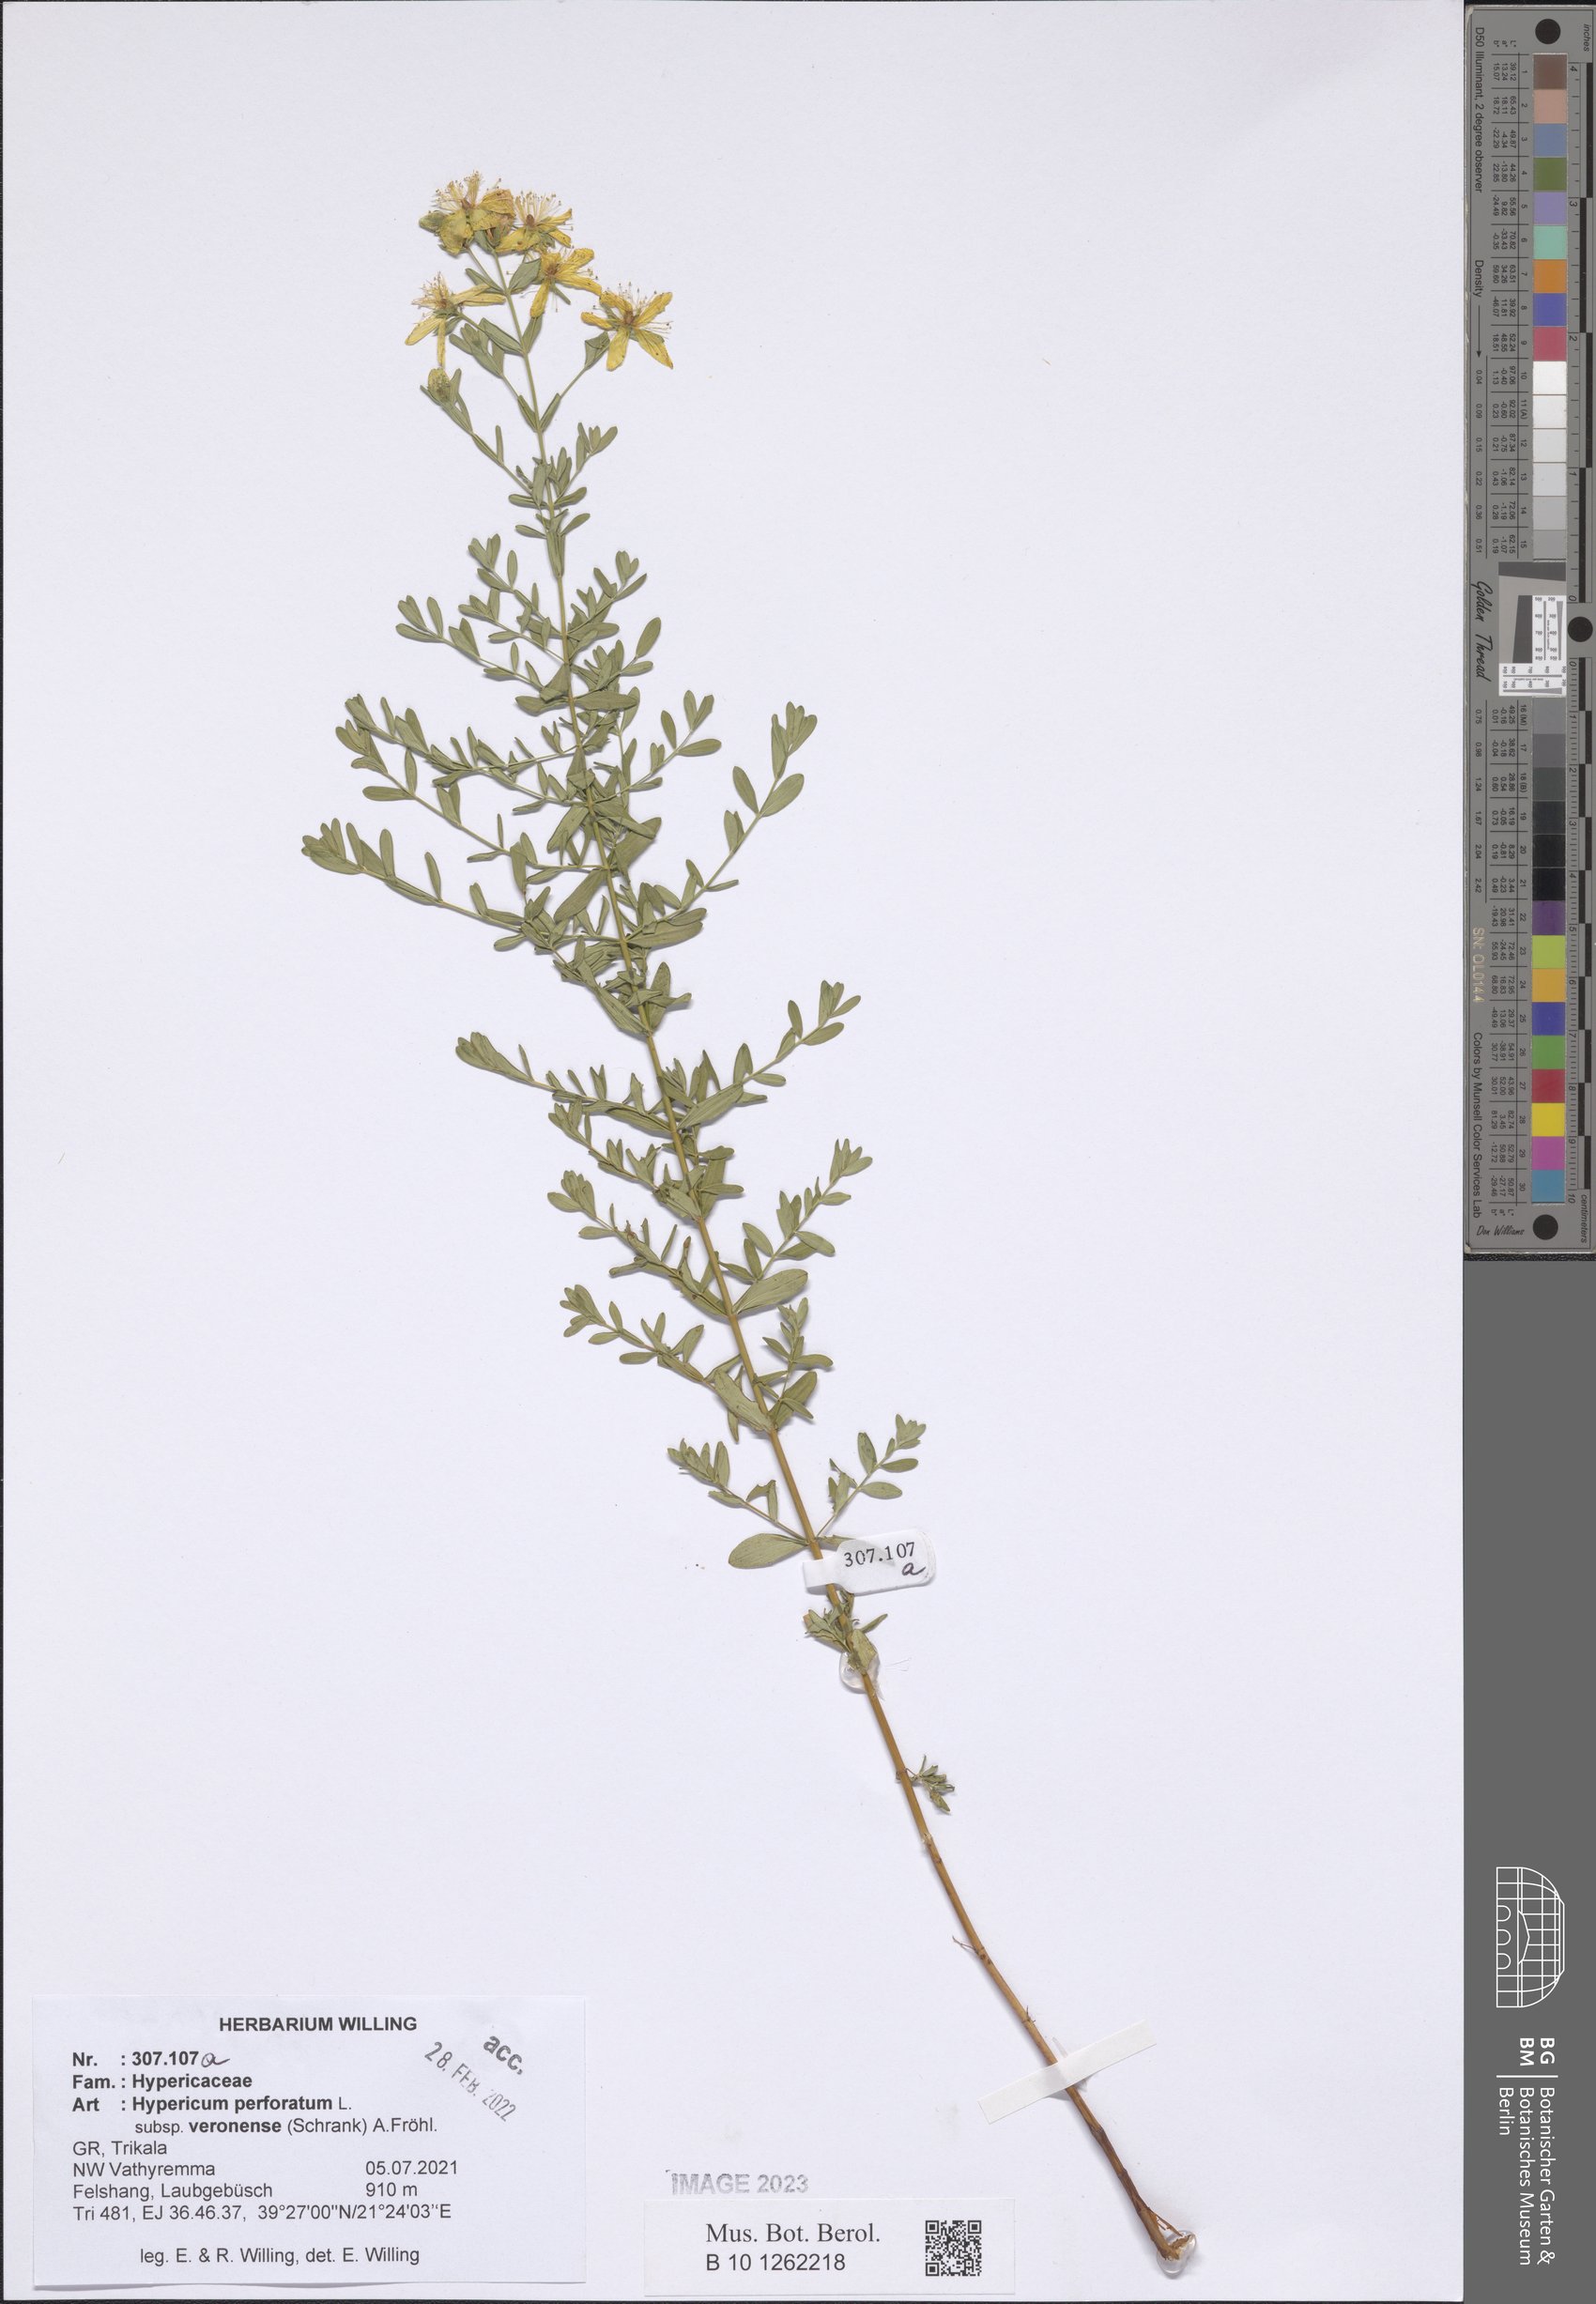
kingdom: Plantae
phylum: Tracheophyta
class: Magnoliopsida
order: Malpighiales
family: Hypericaceae
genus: Hypericum
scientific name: Hypericum veronense
